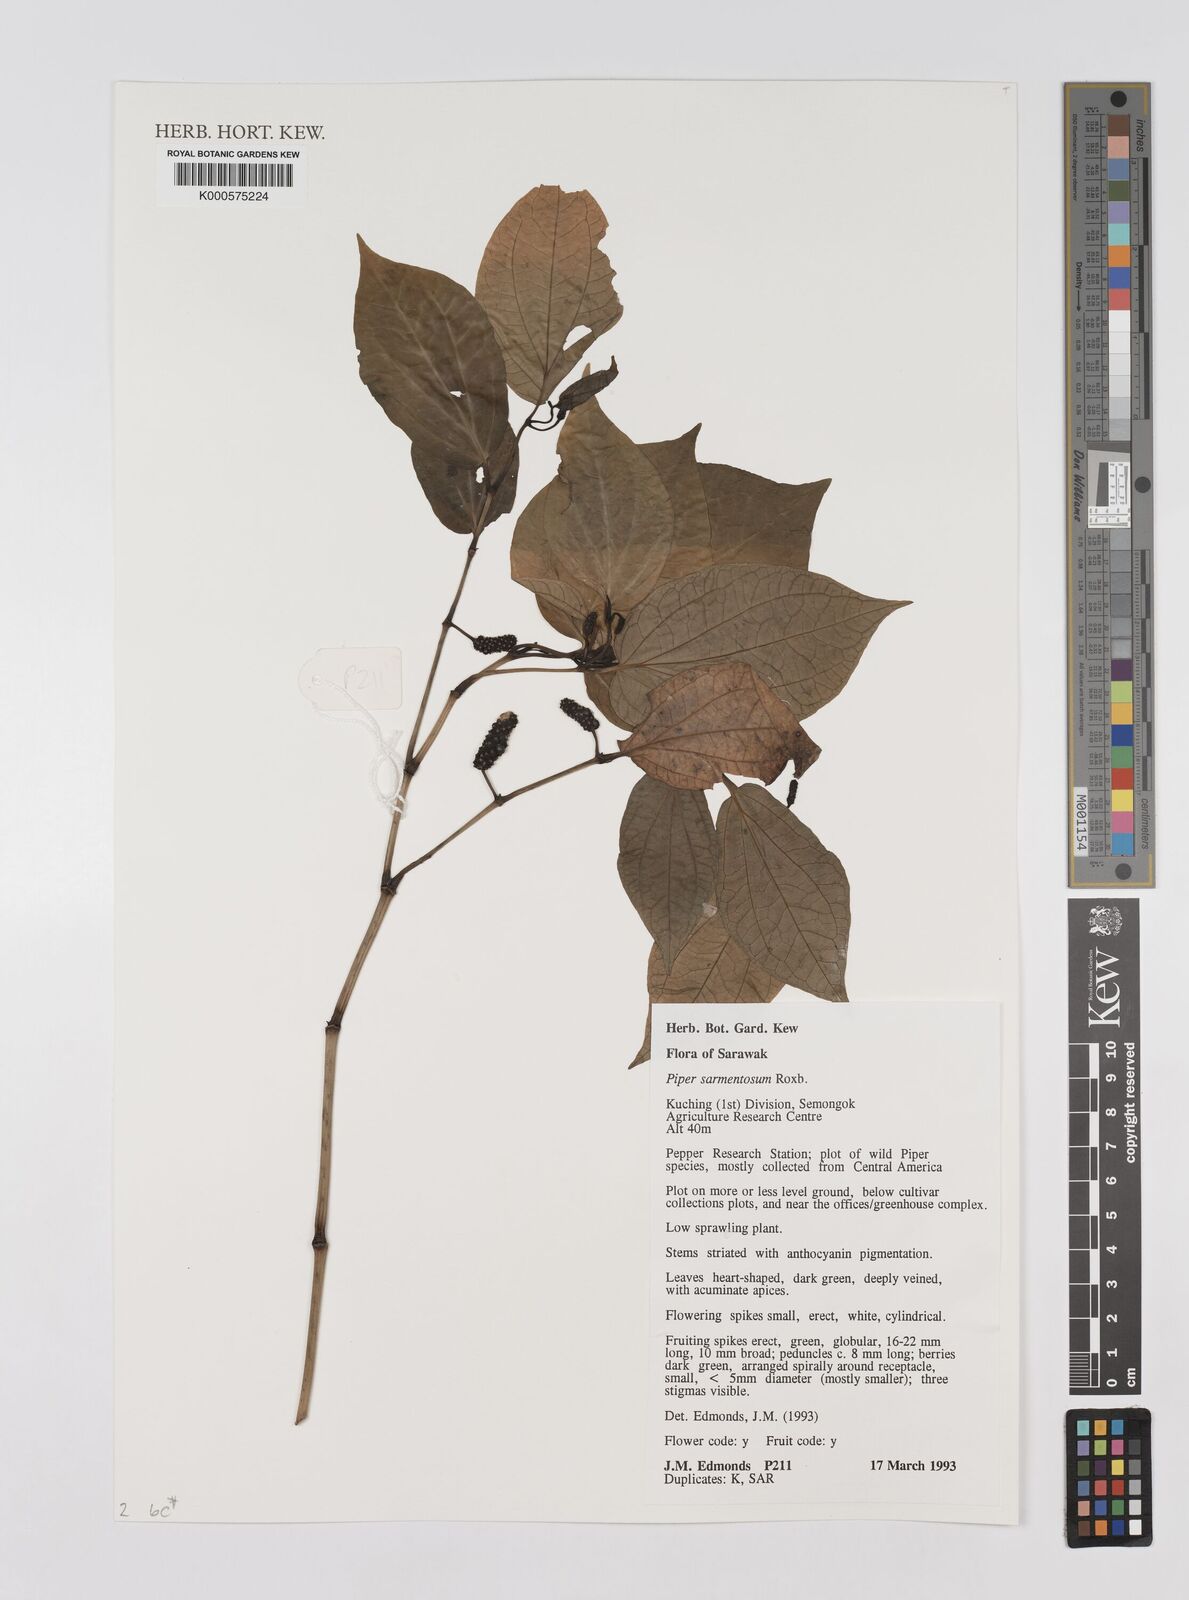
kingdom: Plantae
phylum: Tracheophyta
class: Magnoliopsida
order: Piperales
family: Piperaceae
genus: Piper
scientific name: Piper sarmentosum
